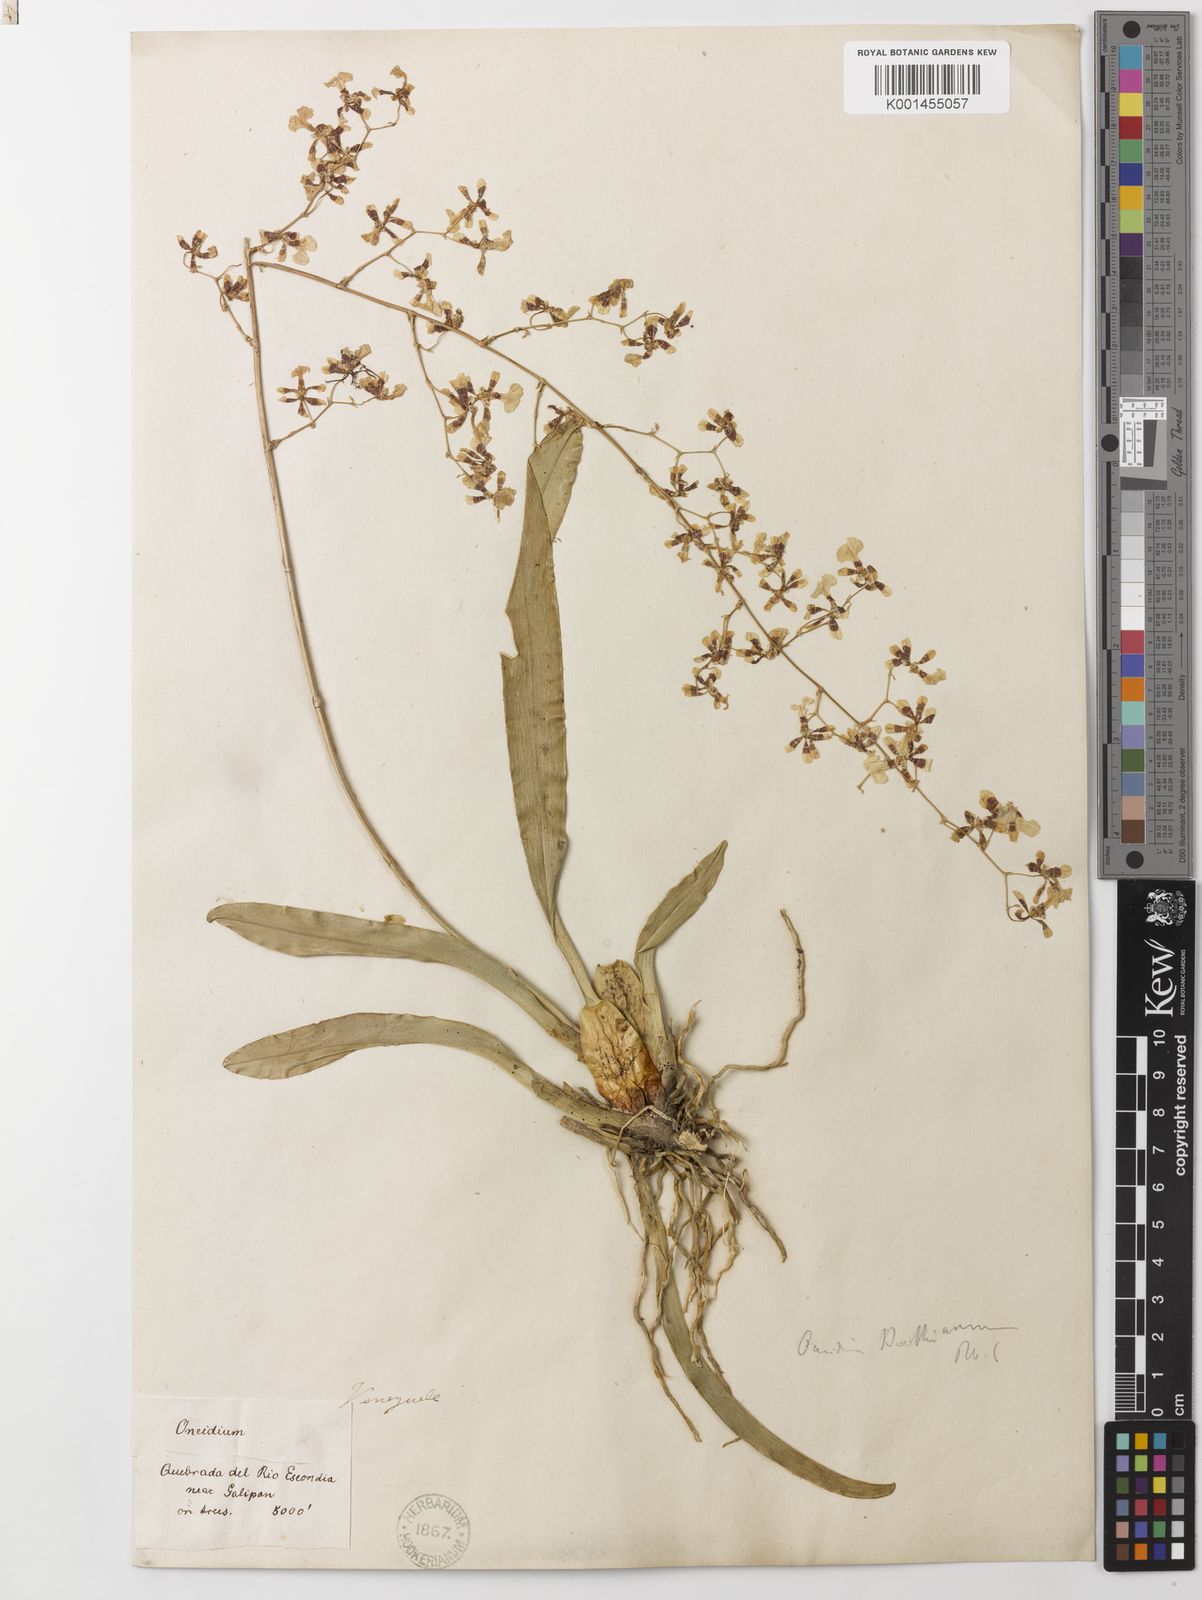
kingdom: Plantae
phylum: Tracheophyta
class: Liliopsida
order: Asparagales
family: Orchidaceae
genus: Oncidium
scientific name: Oncidium boothianum
